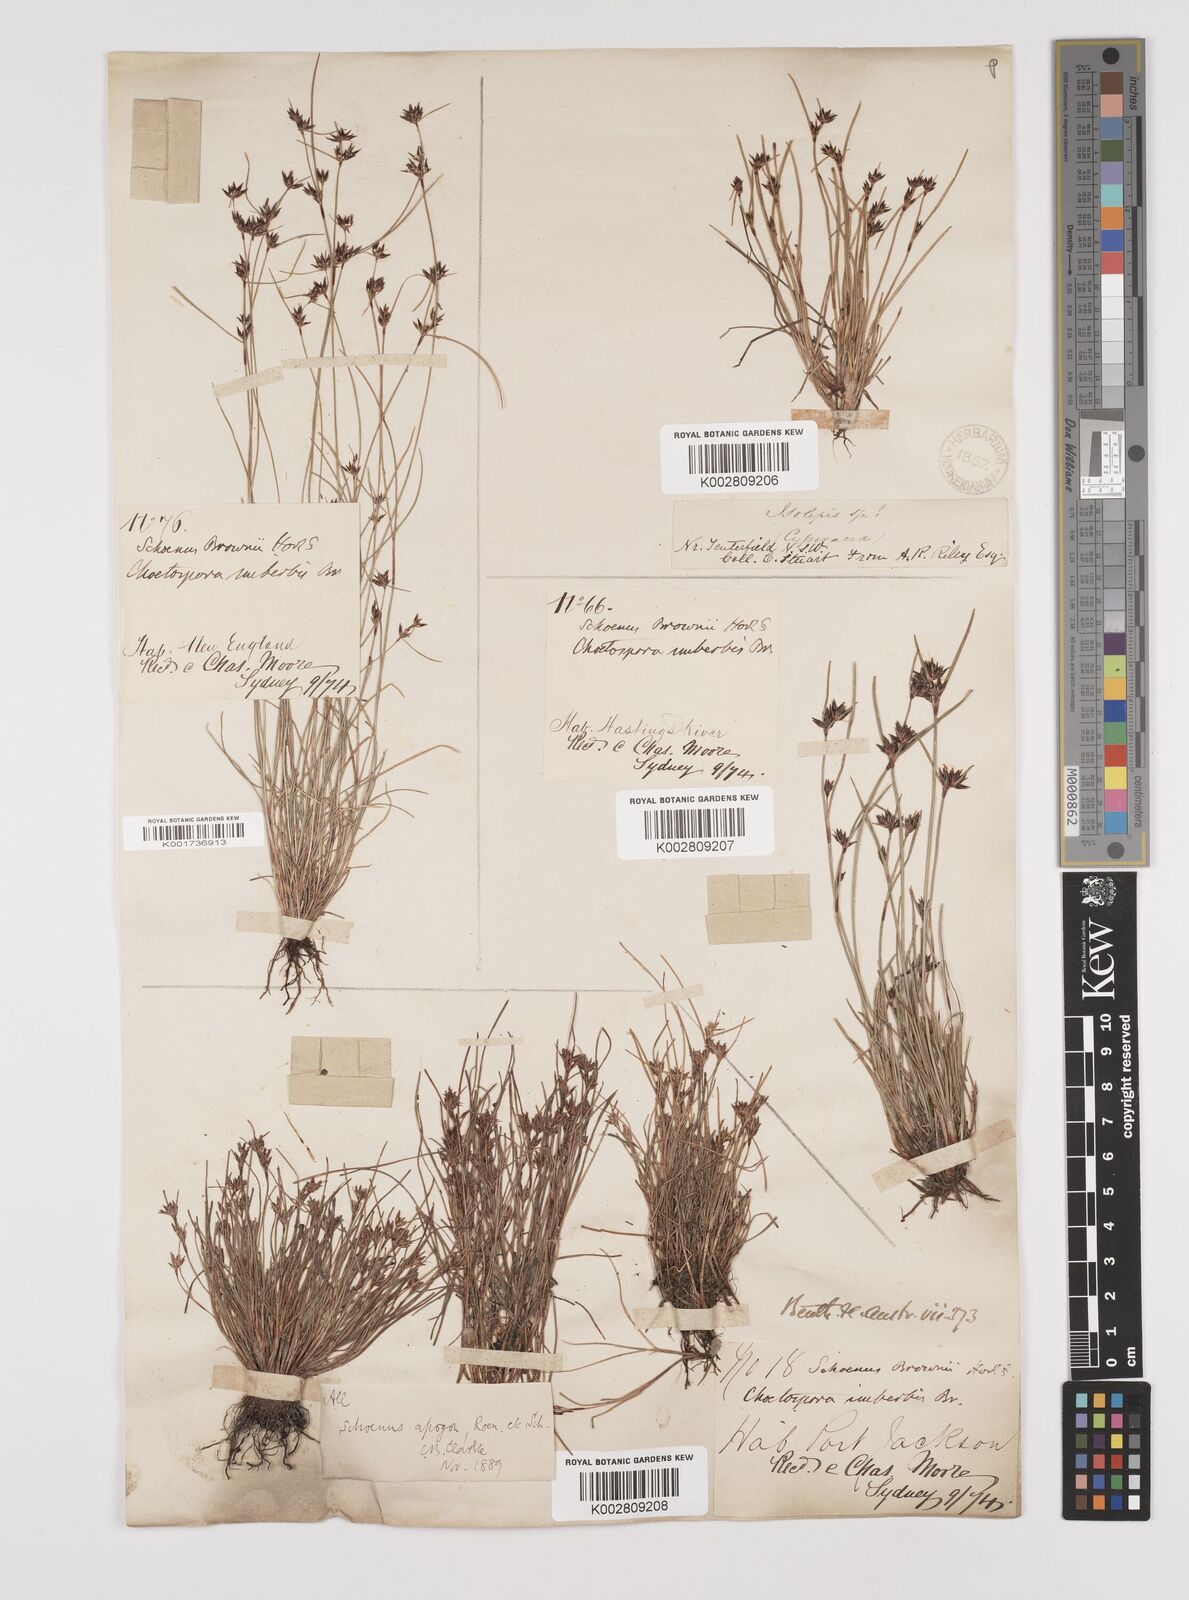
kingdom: Plantae
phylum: Tracheophyta
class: Liliopsida
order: Poales
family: Cyperaceae
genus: Schoenus
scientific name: Schoenus apogon
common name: Smooth bogrush
